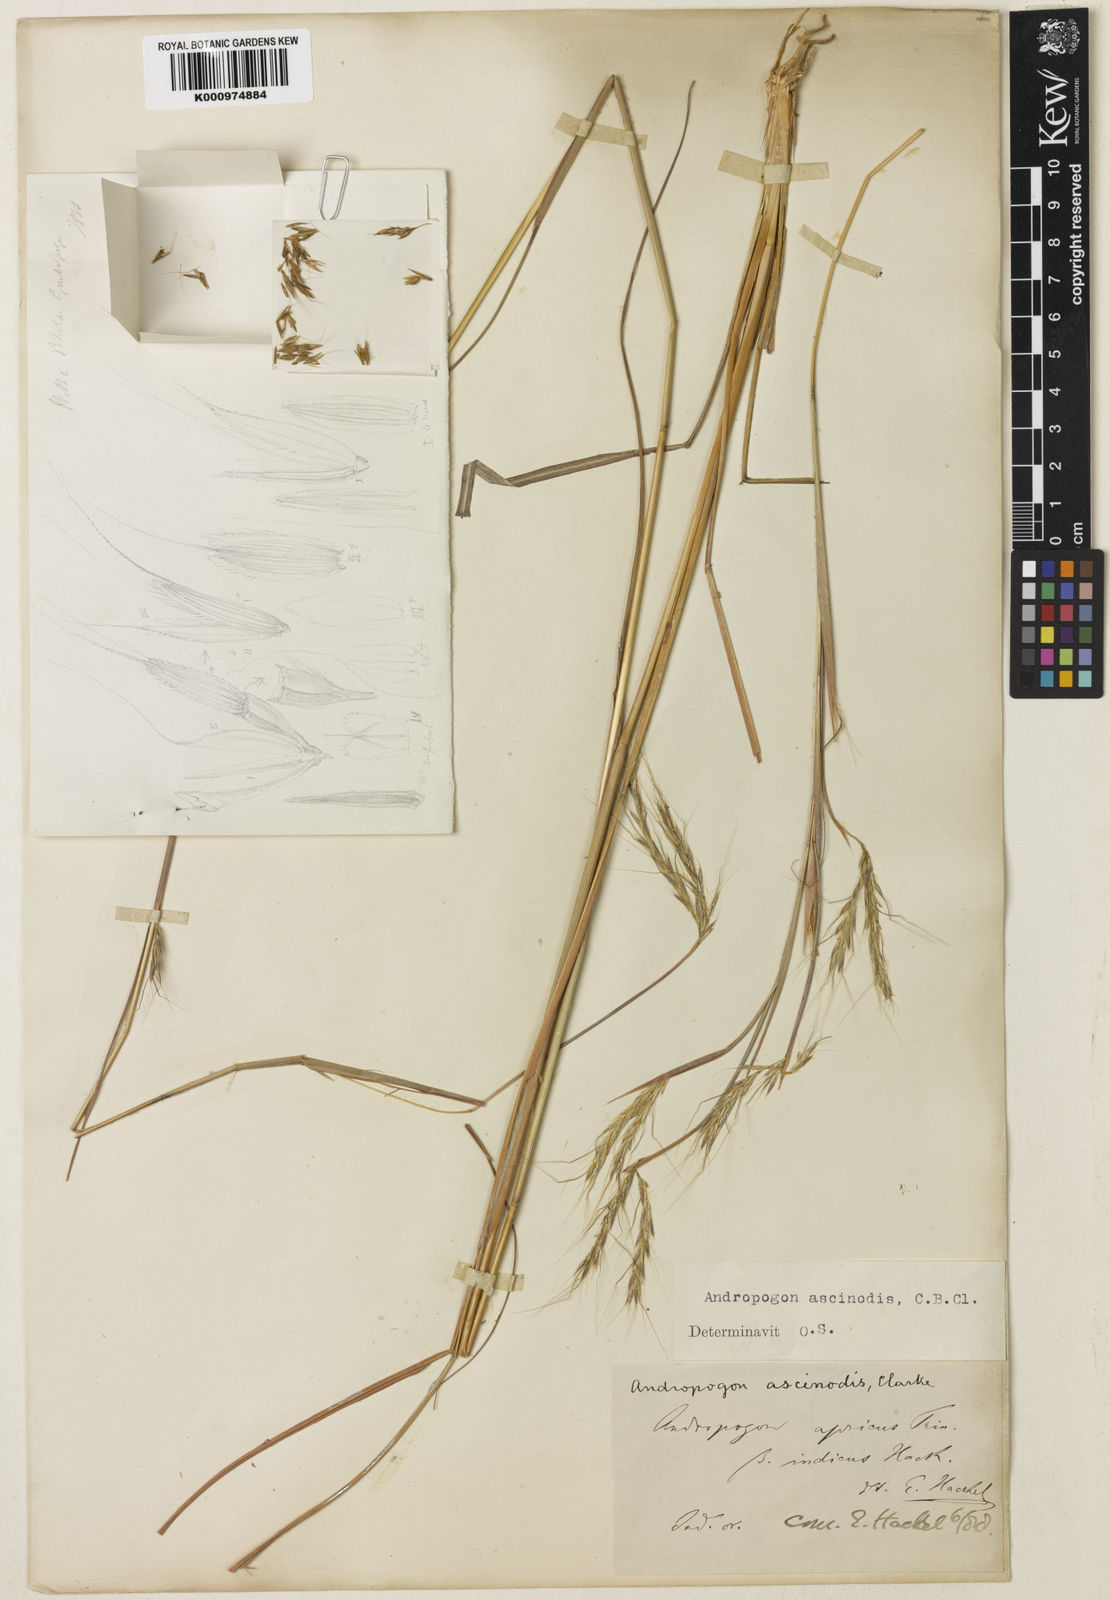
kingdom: Plantae
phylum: Tracheophyta
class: Liliopsida
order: Poales
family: Poaceae
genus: Andropogon
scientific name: Andropogon chinensis
